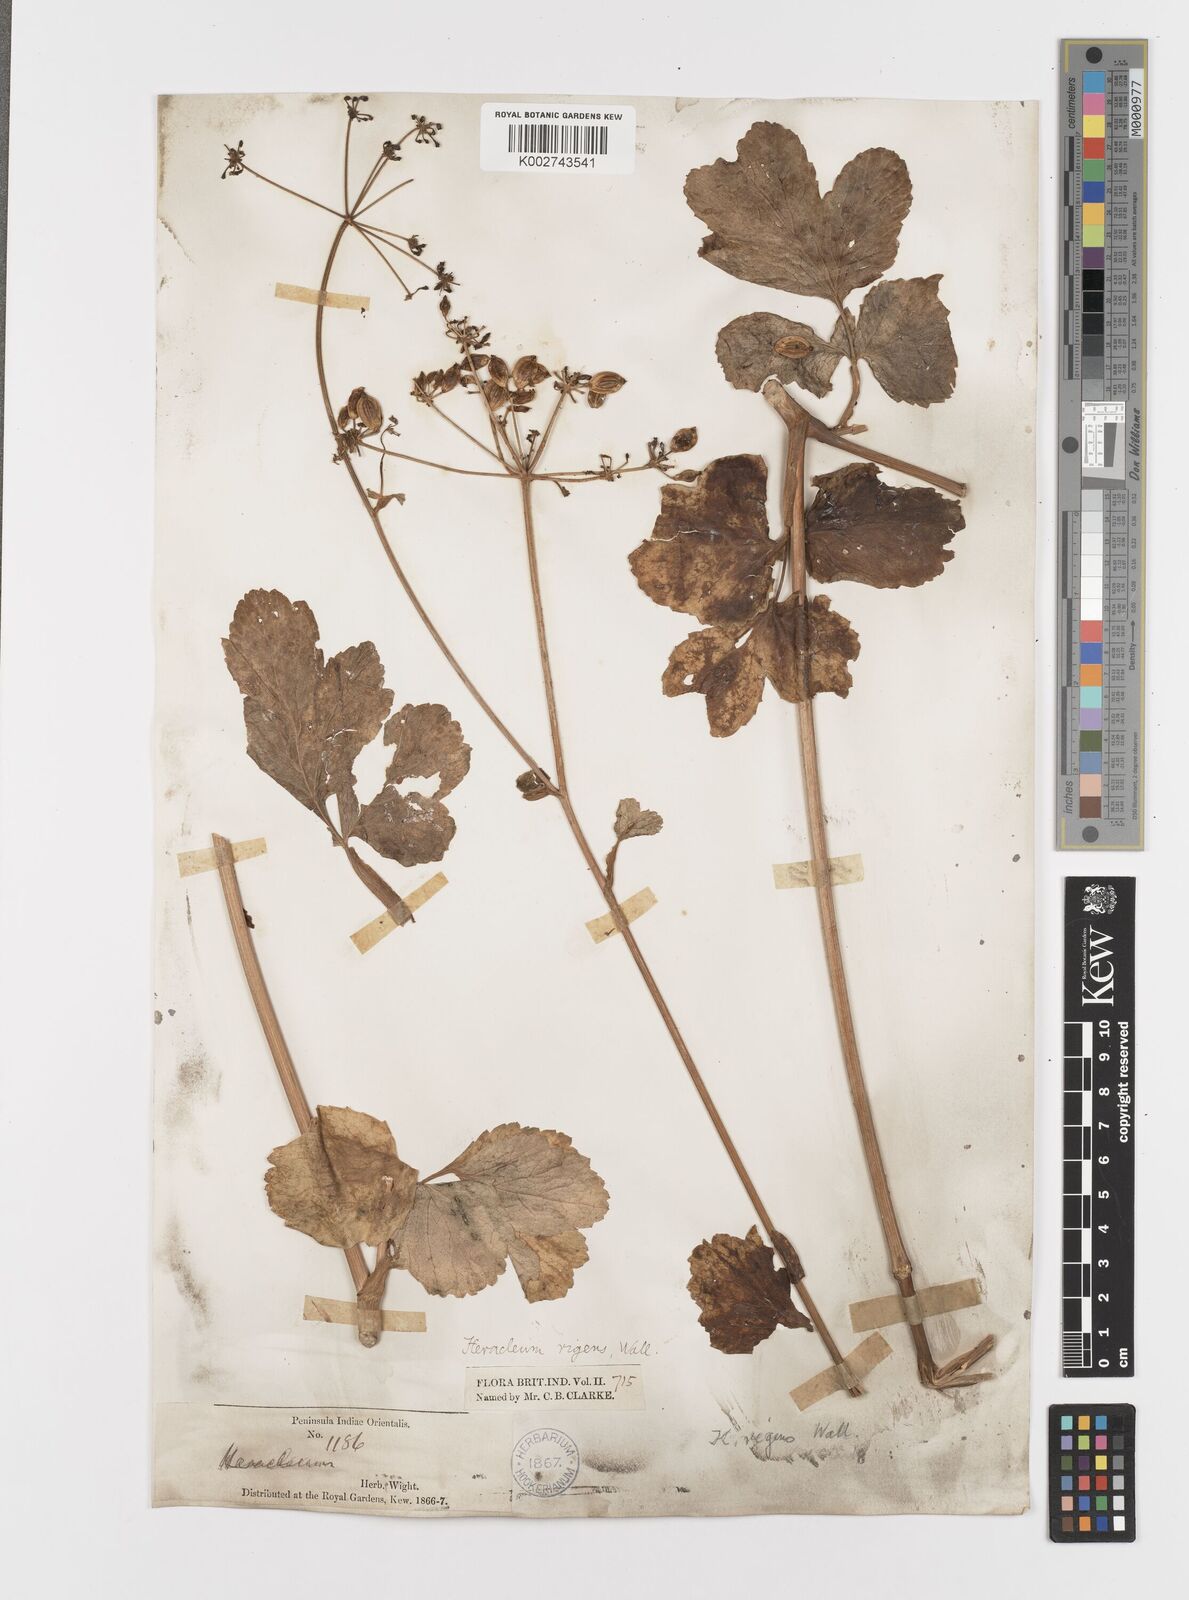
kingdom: Plantae
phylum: Tracheophyta
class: Magnoliopsida
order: Apiales
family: Apiaceae
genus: Tetrataenium
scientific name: Tetrataenium rigens
